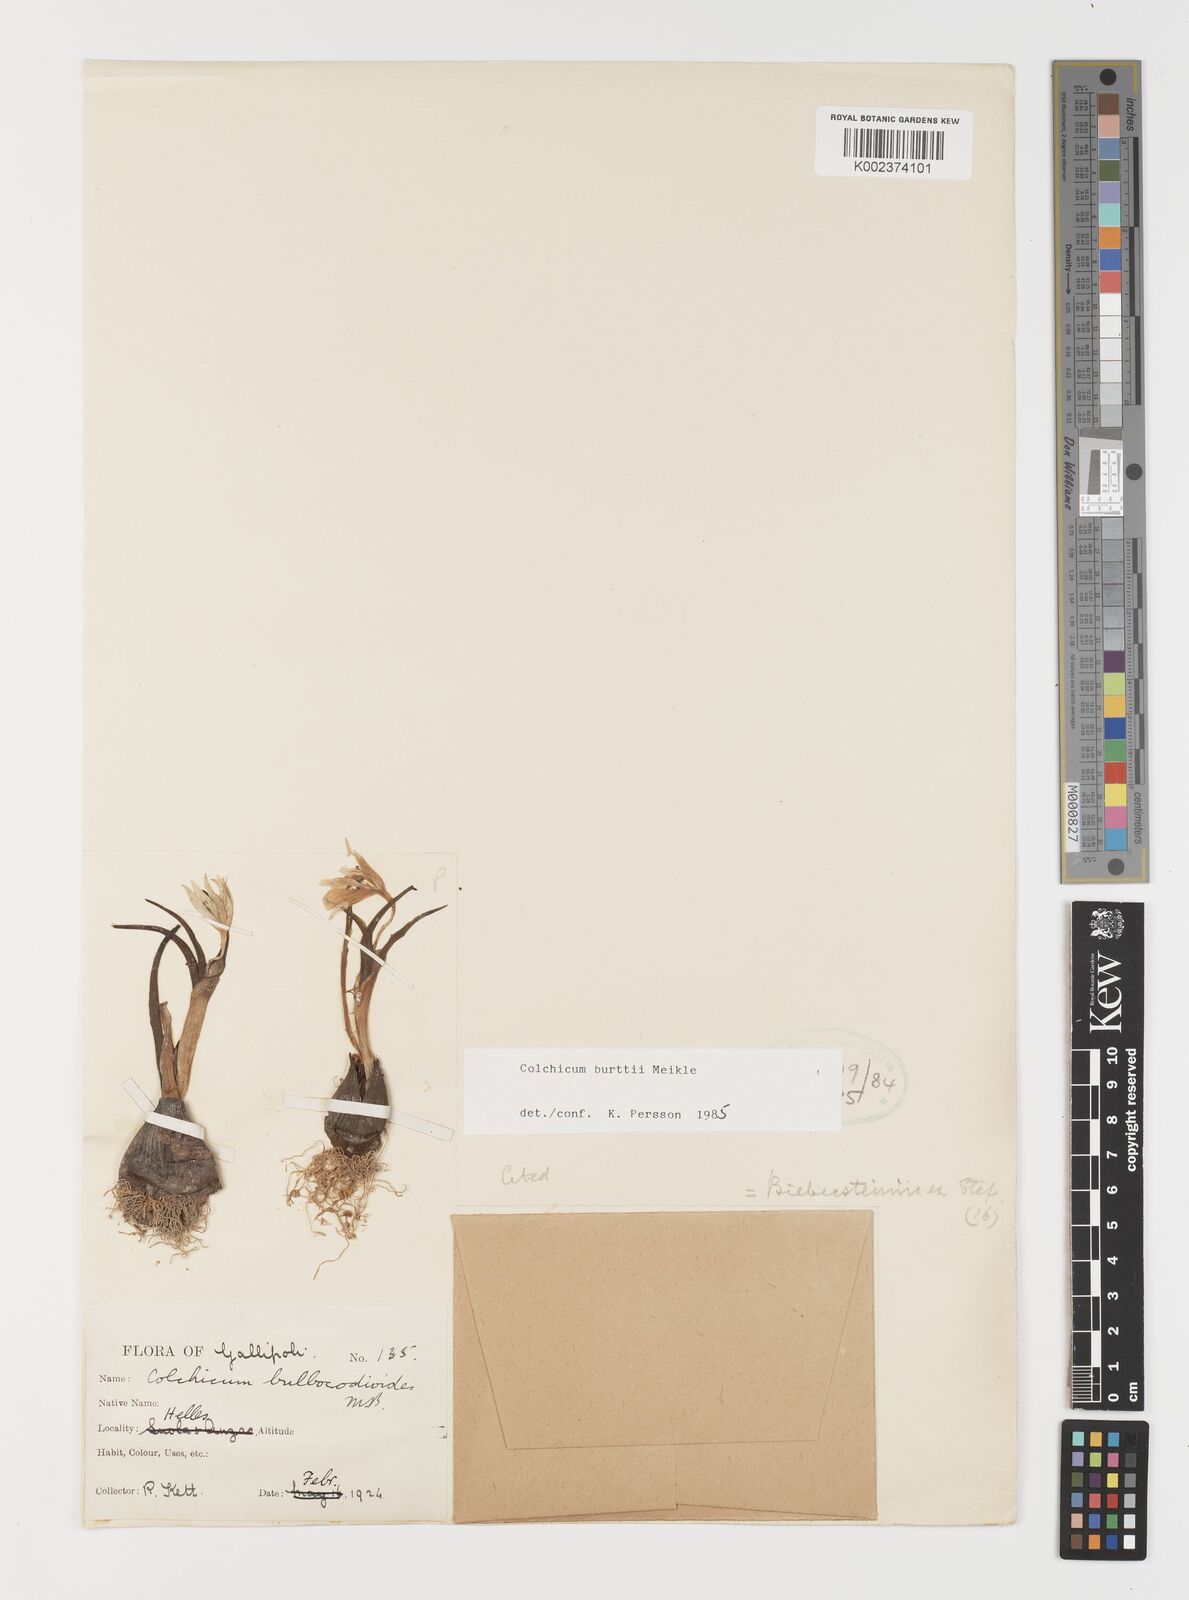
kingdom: Plantae
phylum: Tracheophyta
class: Liliopsida
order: Liliales
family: Colchicaceae
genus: Colchicum
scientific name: Colchicum burttii
